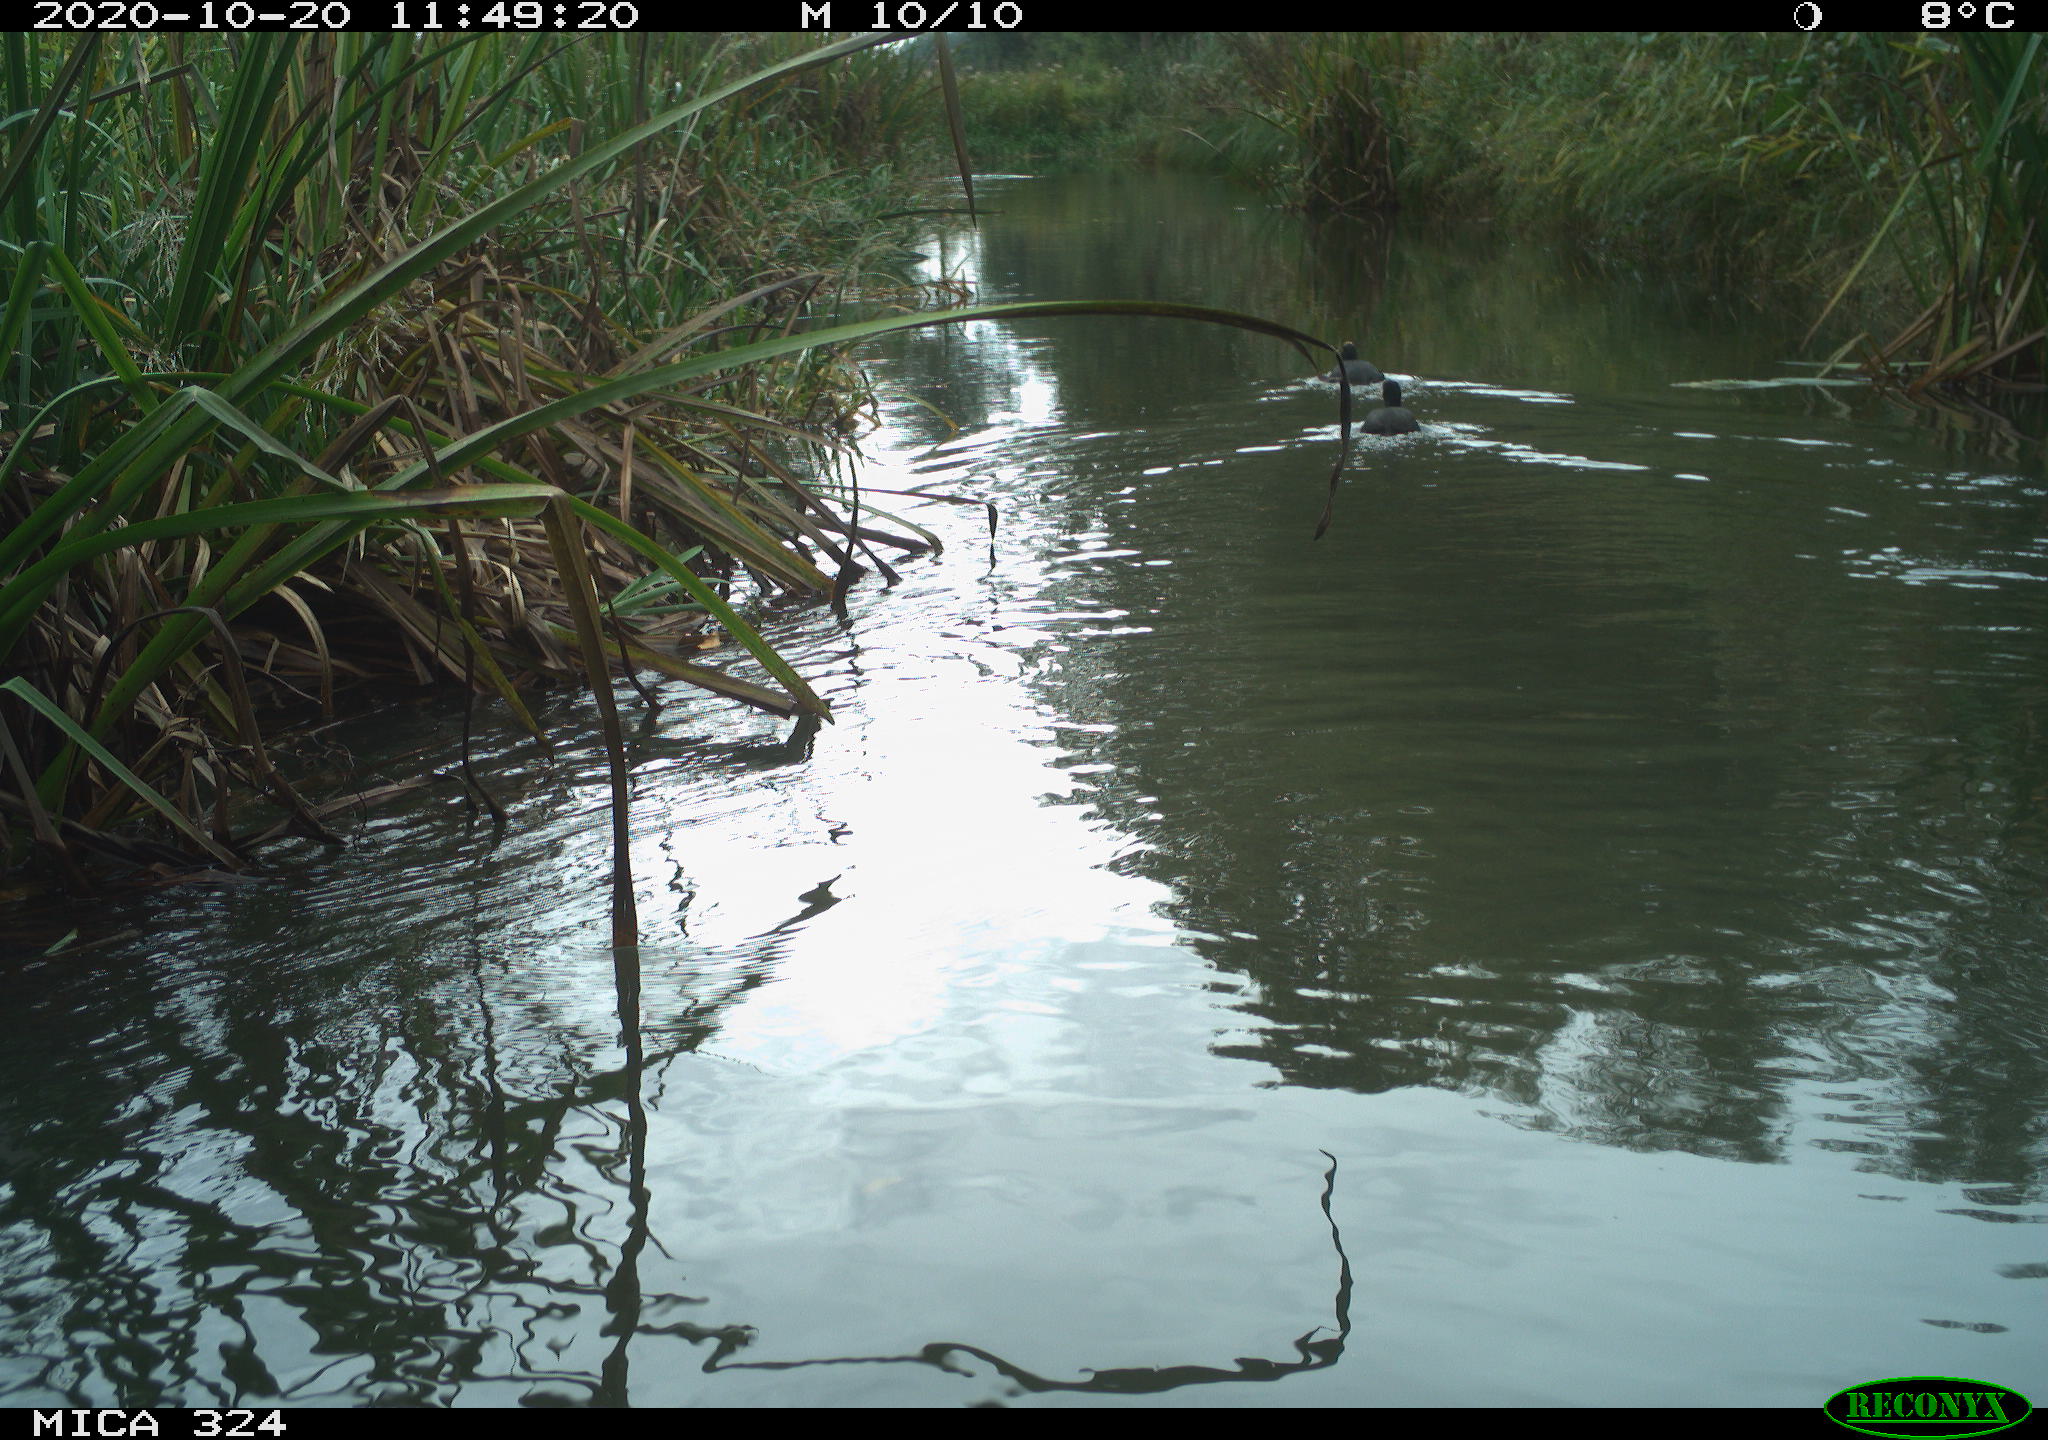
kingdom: Animalia
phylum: Chordata
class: Aves
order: Gruiformes
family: Rallidae
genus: Fulica
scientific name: Fulica atra
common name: Eurasian coot
